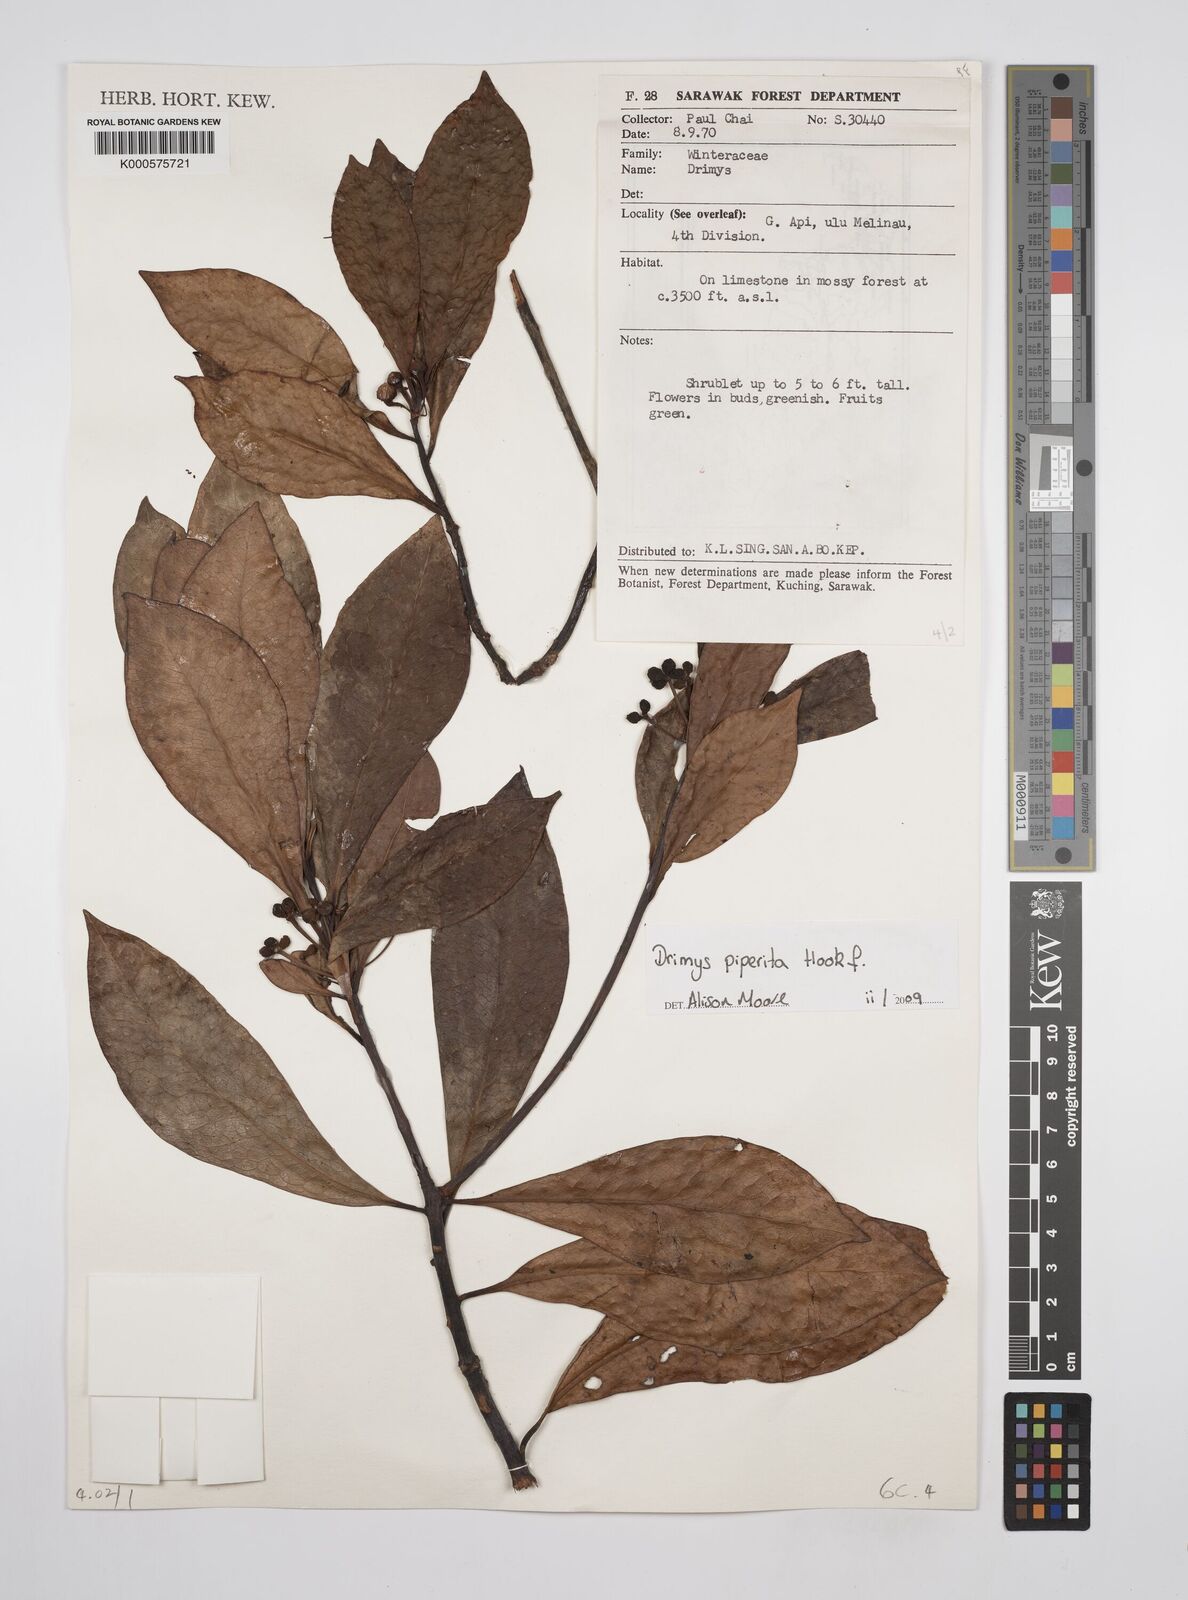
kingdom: Plantae
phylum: Tracheophyta
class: Magnoliopsida
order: Canellales
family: Winteraceae
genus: Drimys
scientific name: Drimys piperita
